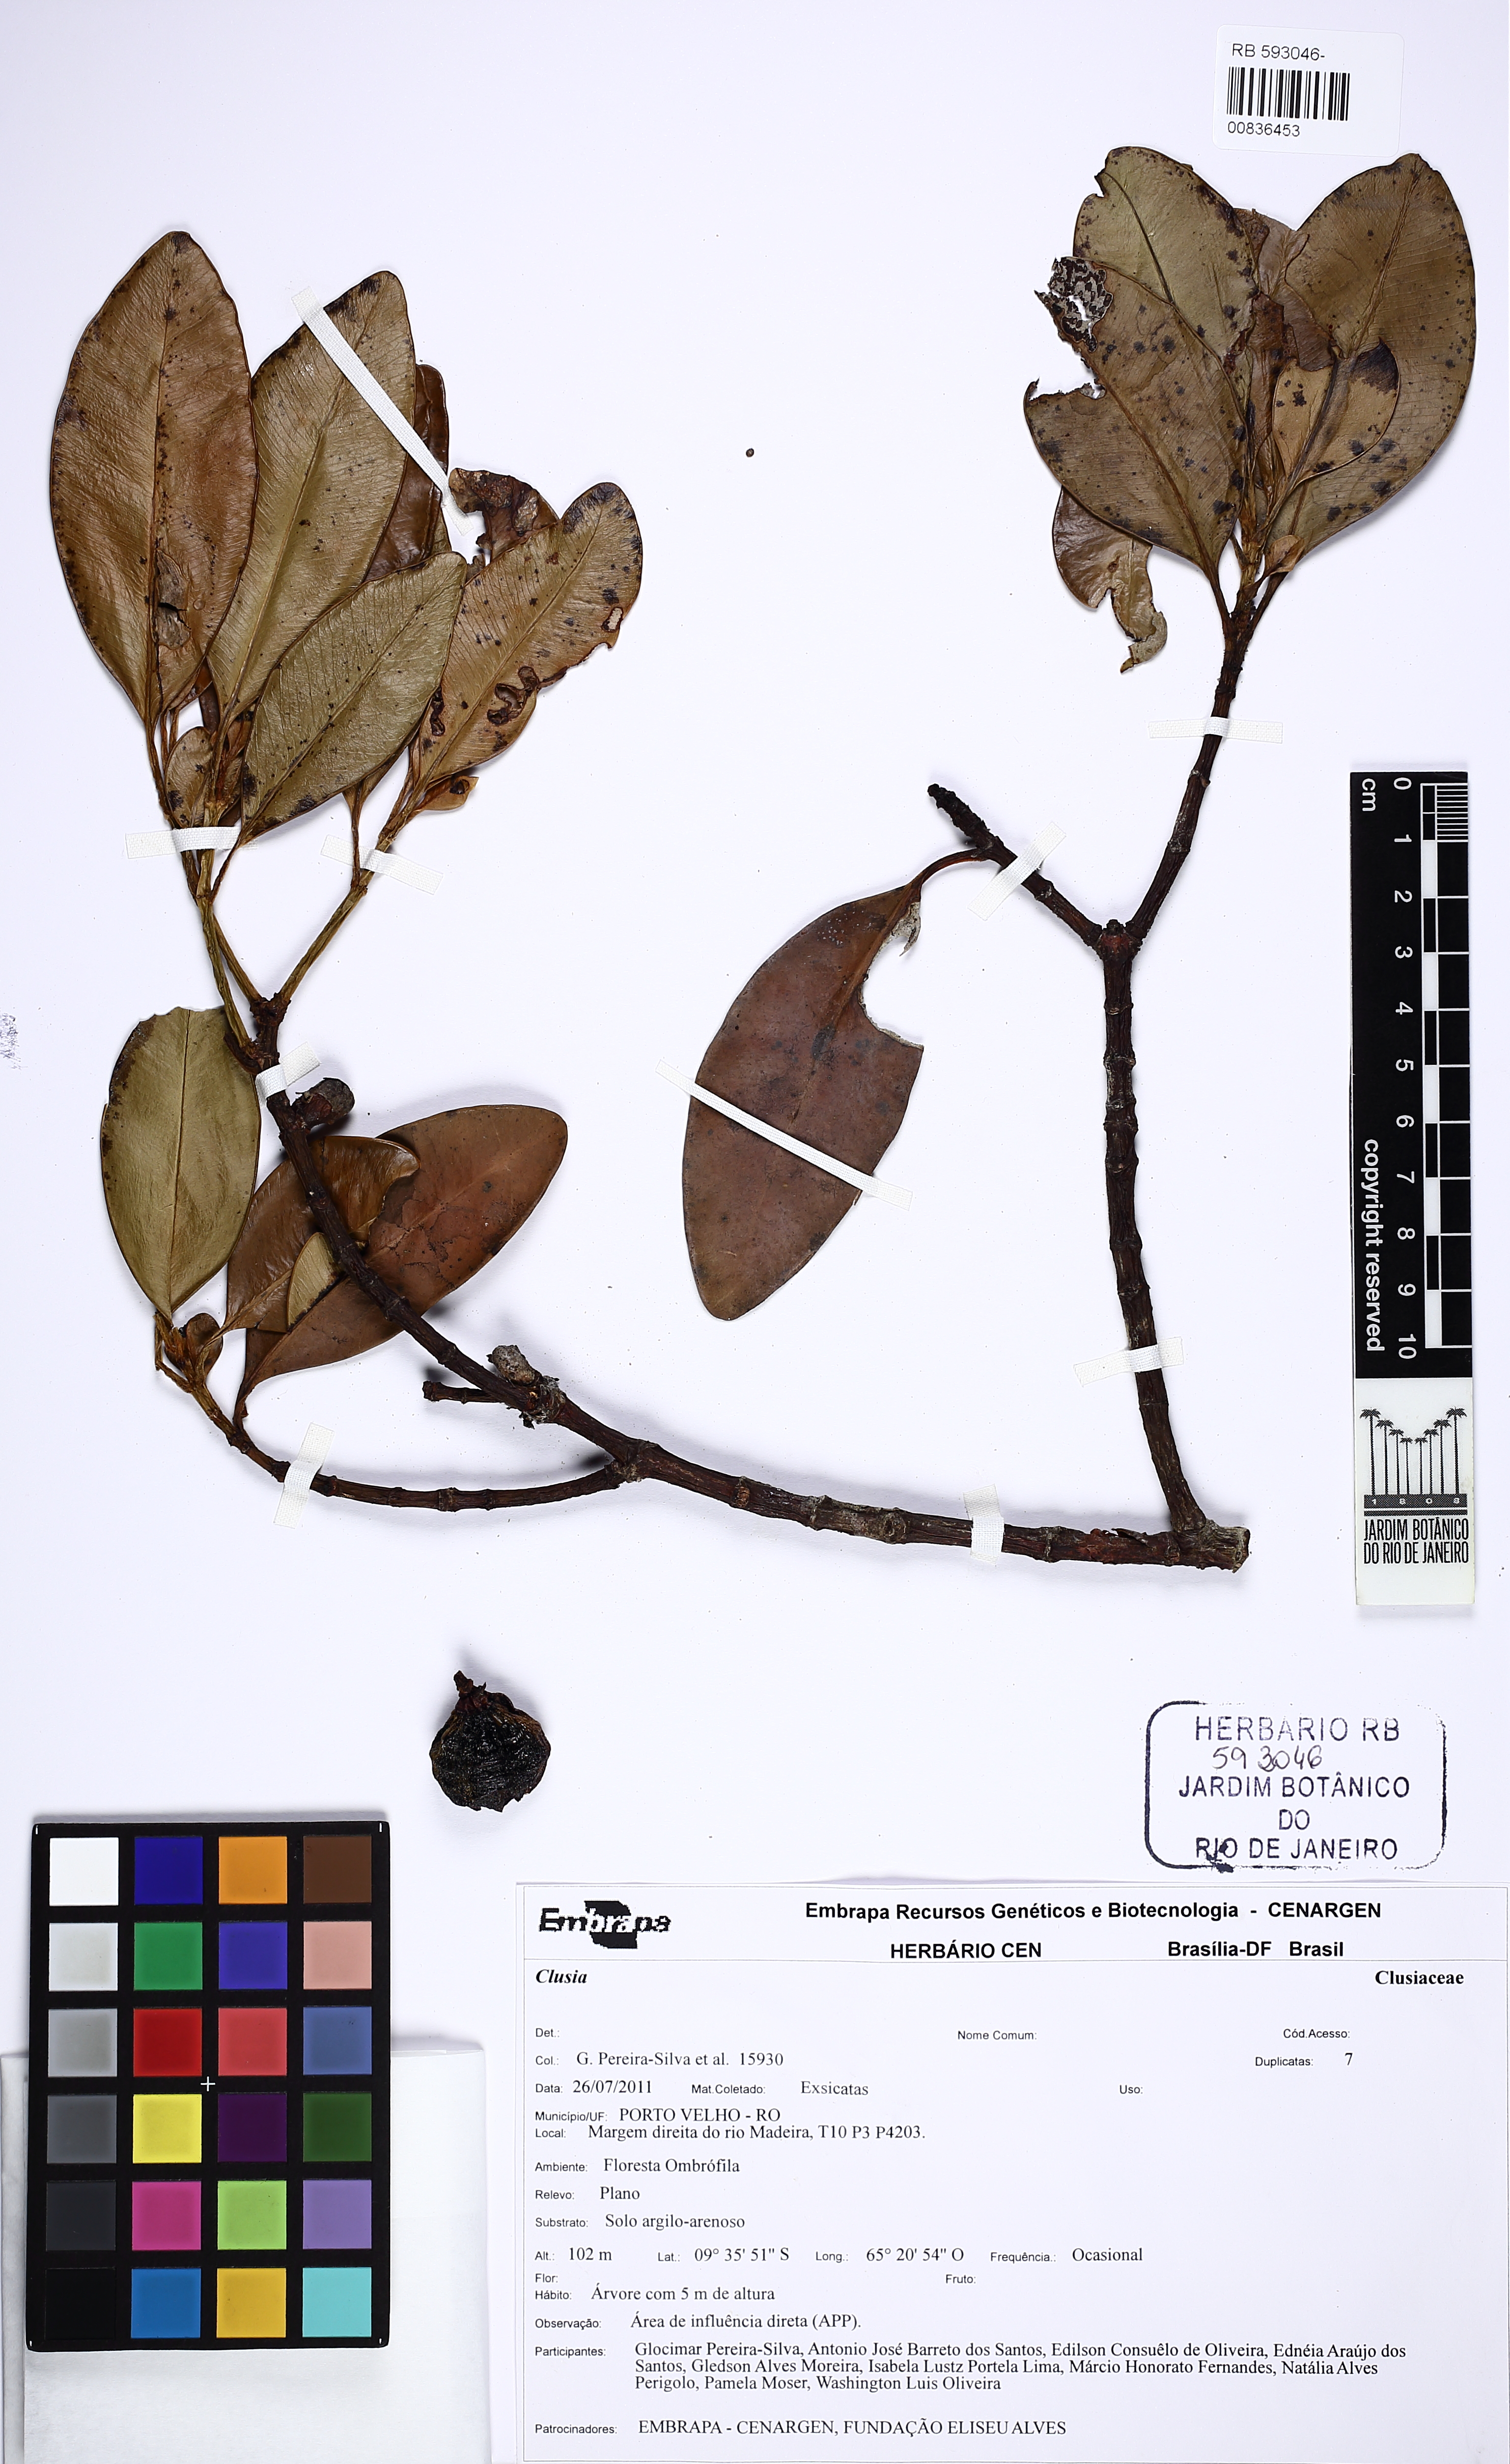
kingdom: Plantae
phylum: Tracheophyta
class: Magnoliopsida
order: Malpighiales
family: Clusiaceae
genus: Clusia
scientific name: Clusia renggerioides
